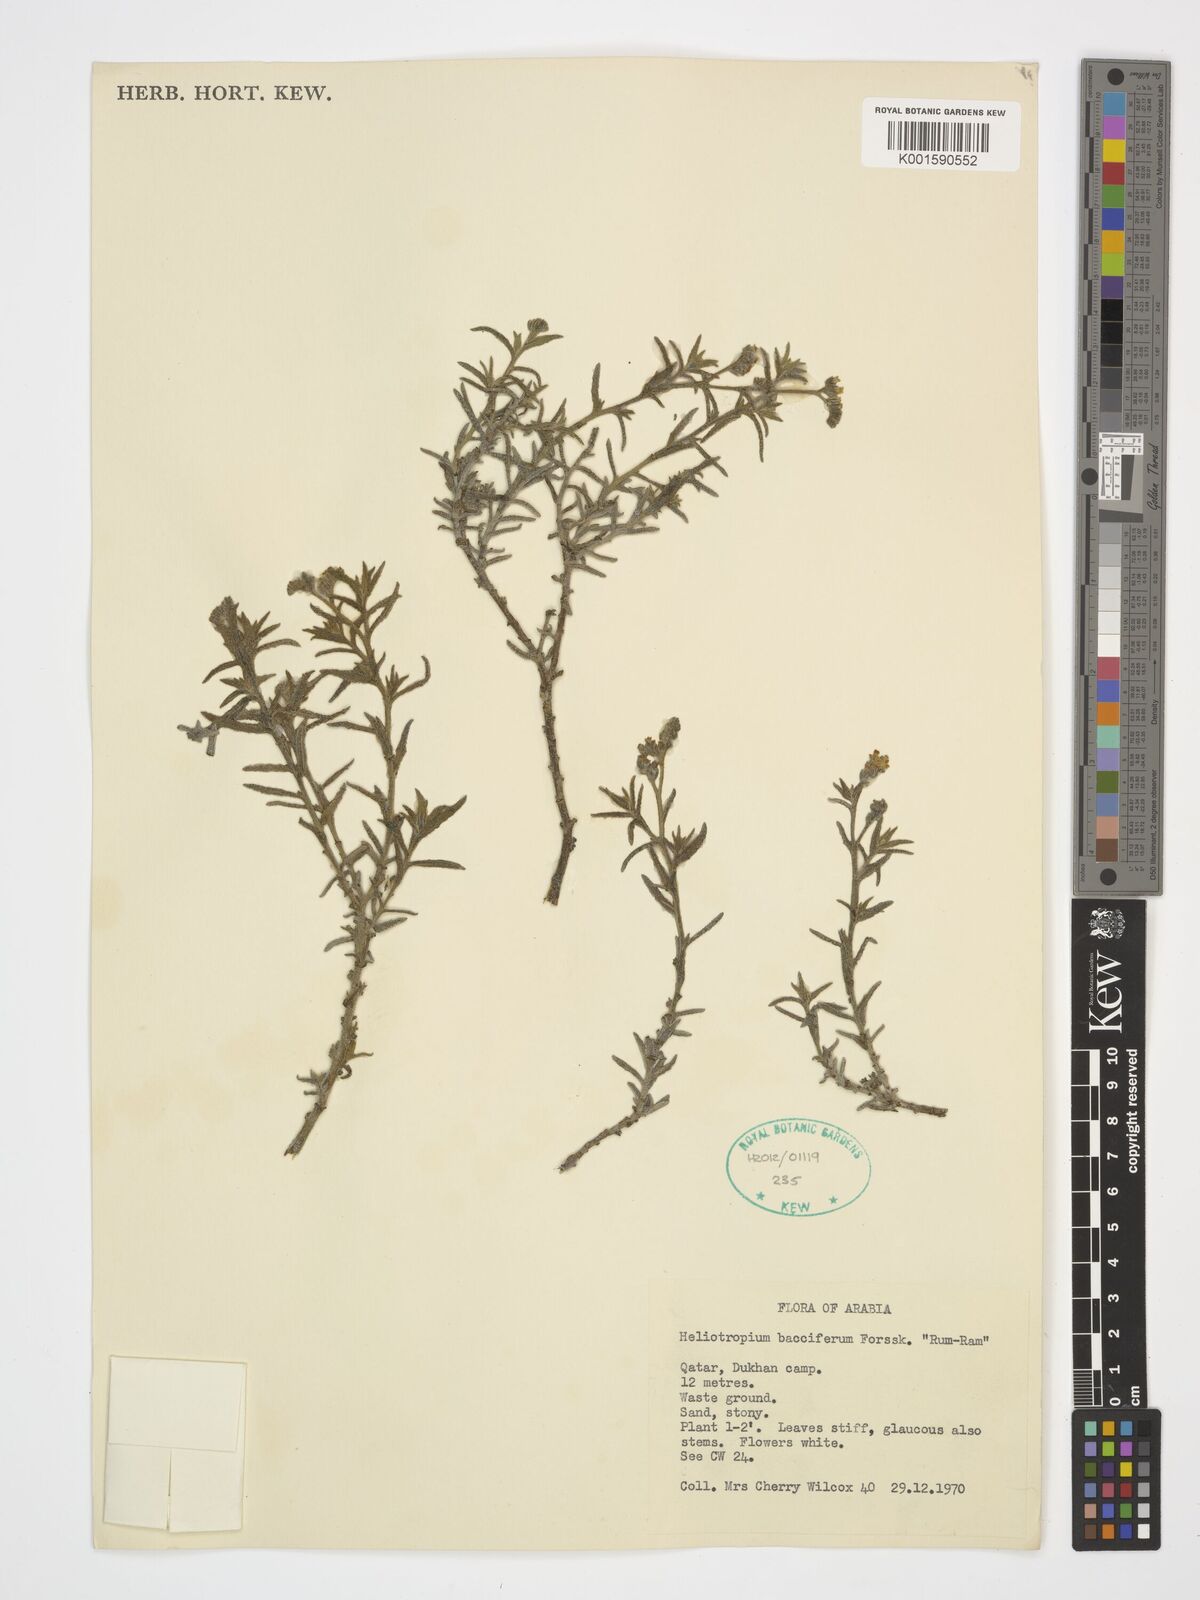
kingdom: Plantae
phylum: Tracheophyta
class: Magnoliopsida
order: Boraginales
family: Heliotropiaceae
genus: Heliotropium
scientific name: Heliotropium bacciferum
